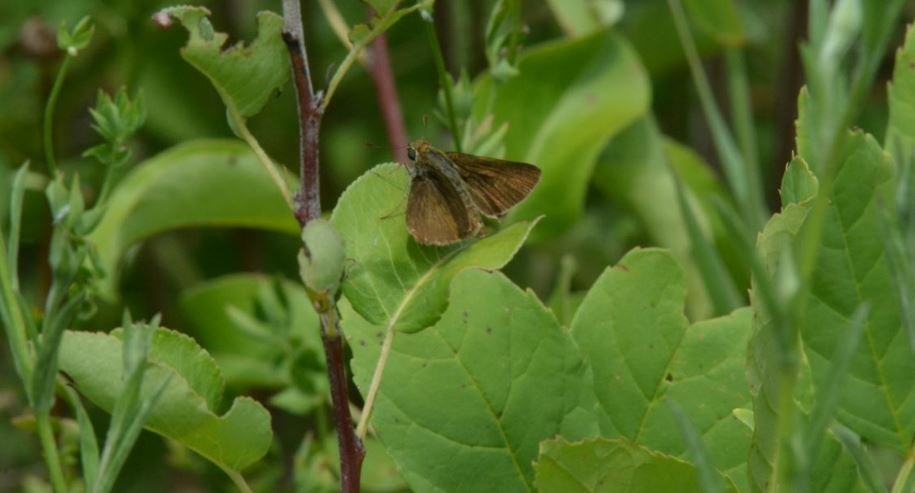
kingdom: Animalia
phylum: Arthropoda
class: Insecta
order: Lepidoptera
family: Hesperiidae
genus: Euphyes
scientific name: Euphyes vestris
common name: Dun Skipper
